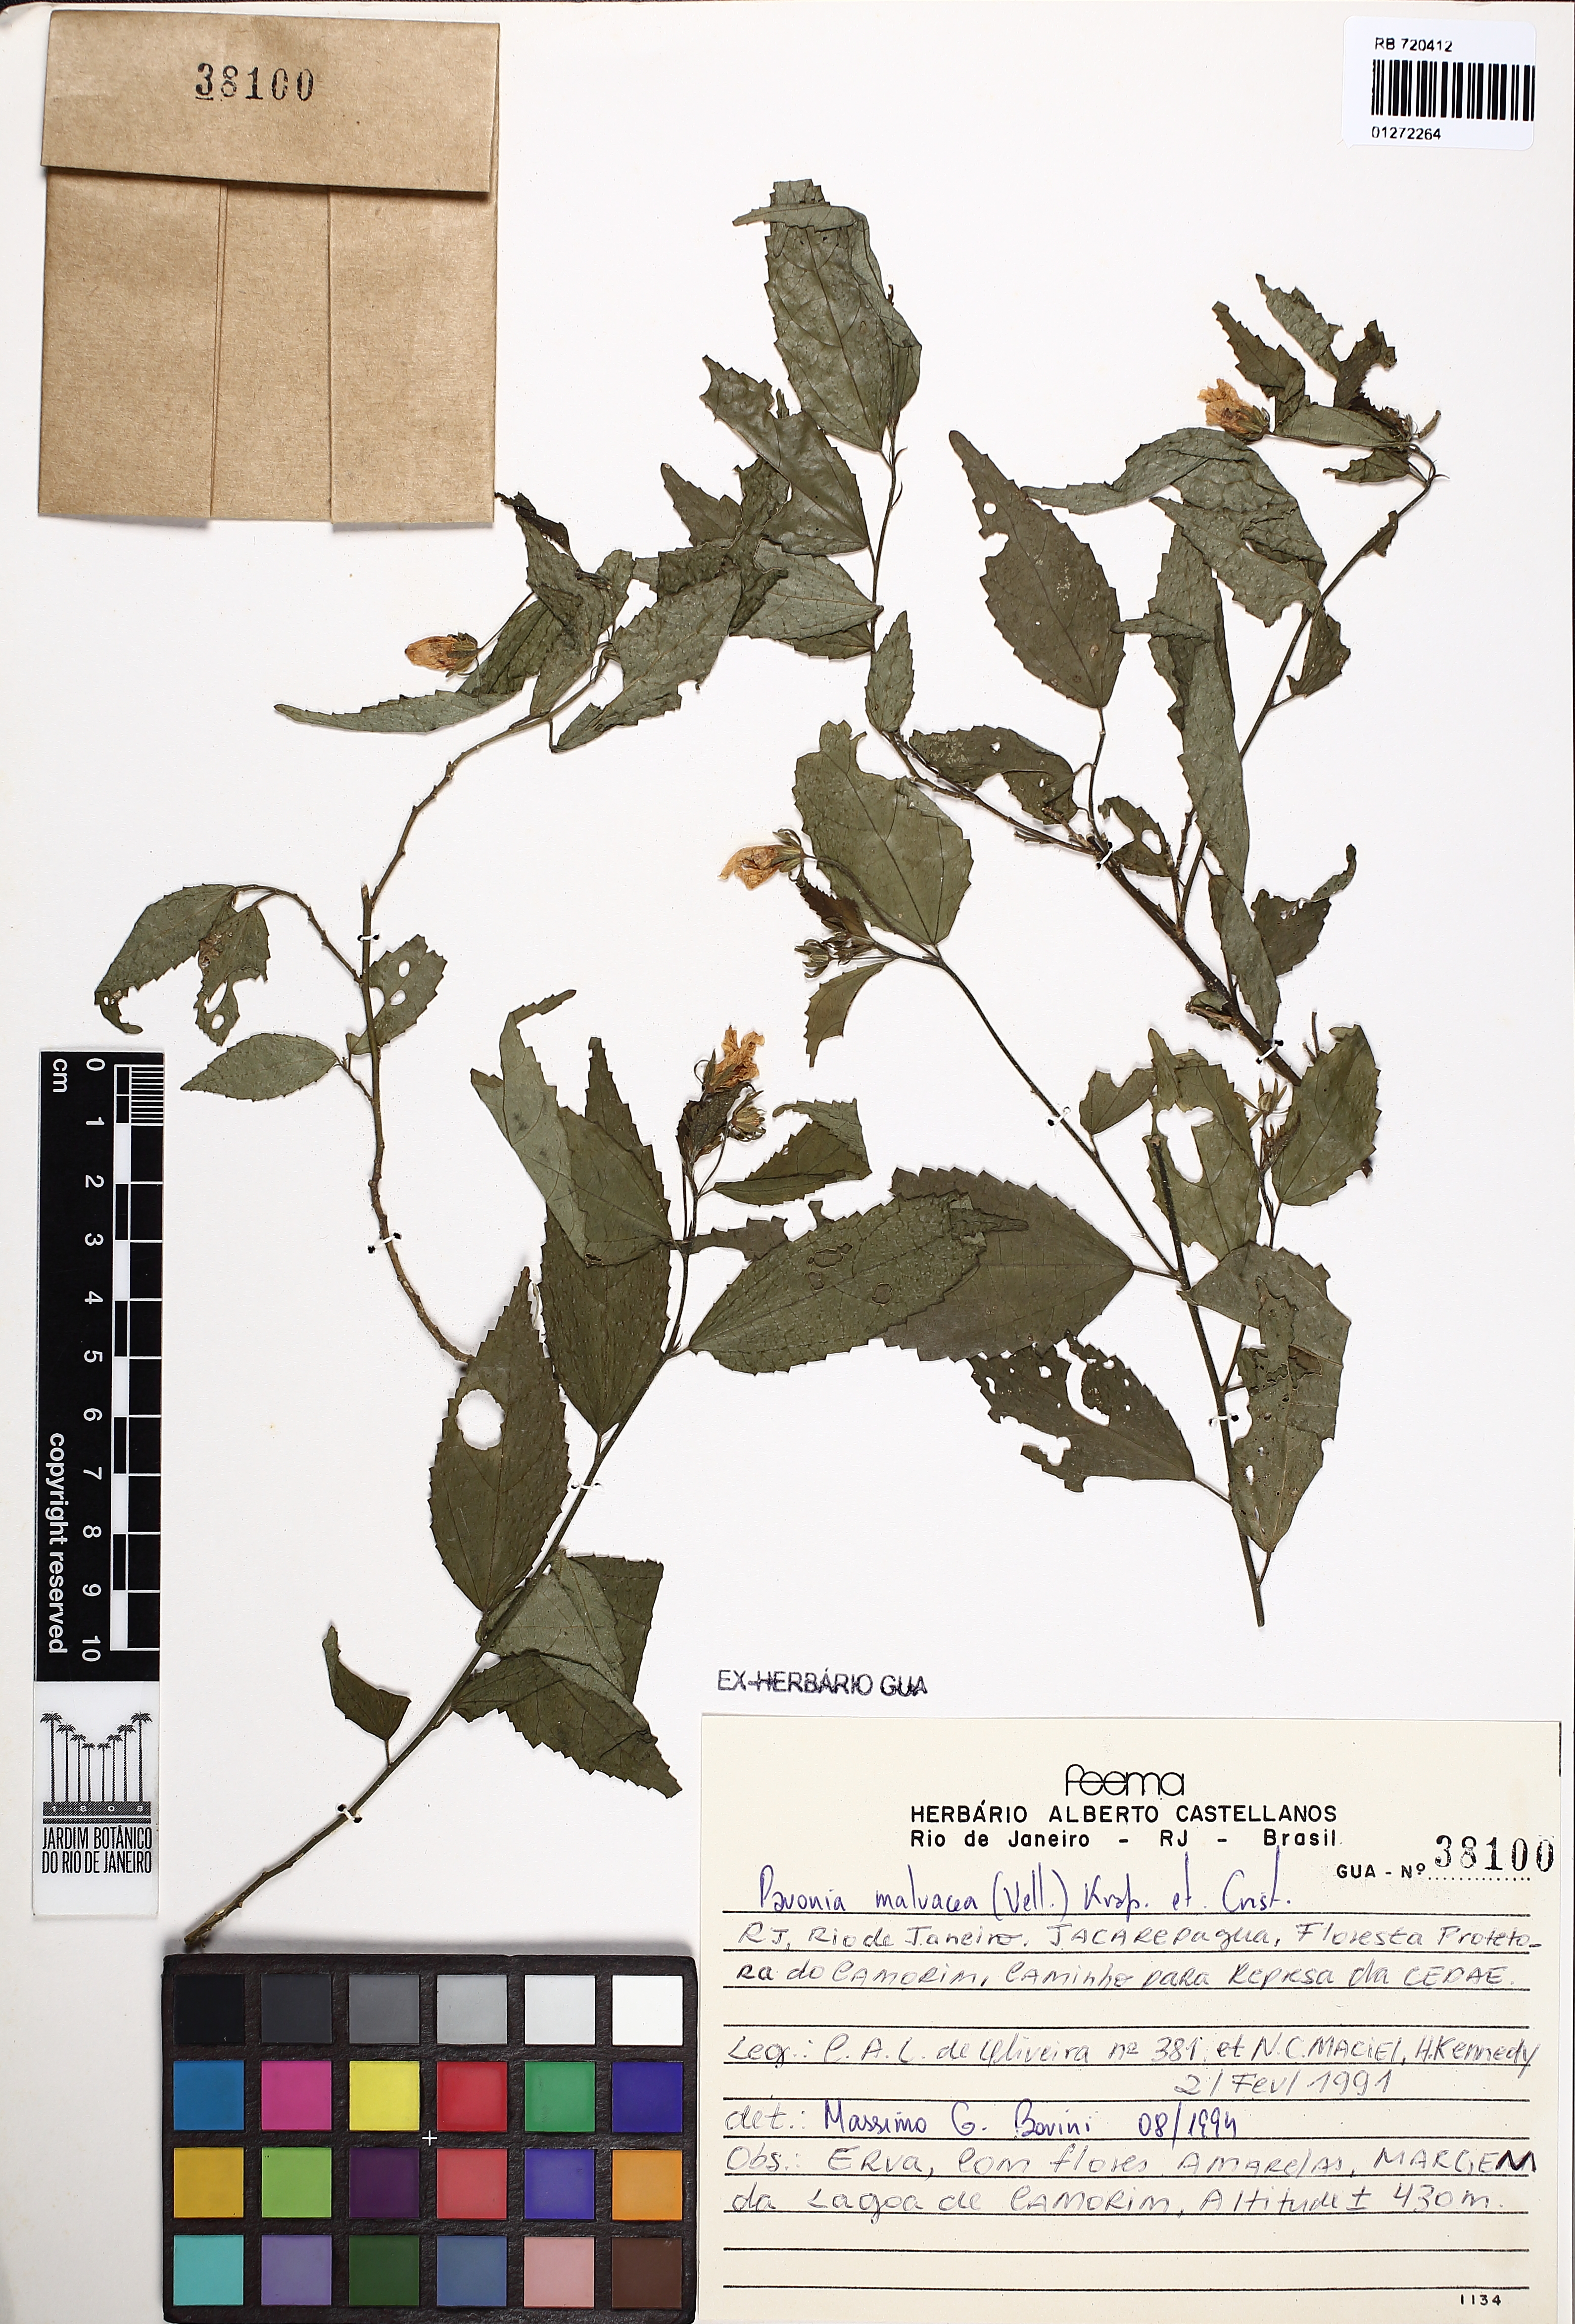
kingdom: Plantae
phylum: Tracheophyta
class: Magnoliopsida
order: Malvales
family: Malvaceae
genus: Pavonia
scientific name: Pavonia sepium
